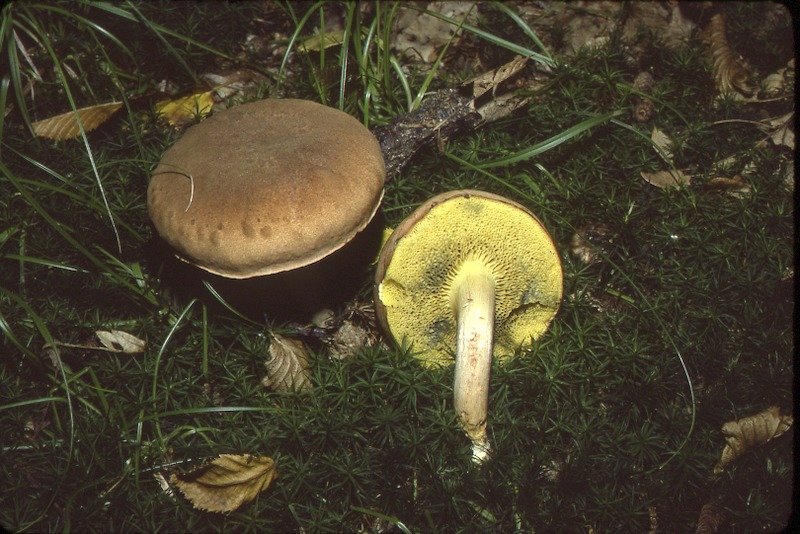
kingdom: Fungi
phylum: Basidiomycota
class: Agaricomycetes
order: Boletales
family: Boletaceae
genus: Xerocomus
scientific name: Xerocomus subtomentosus
